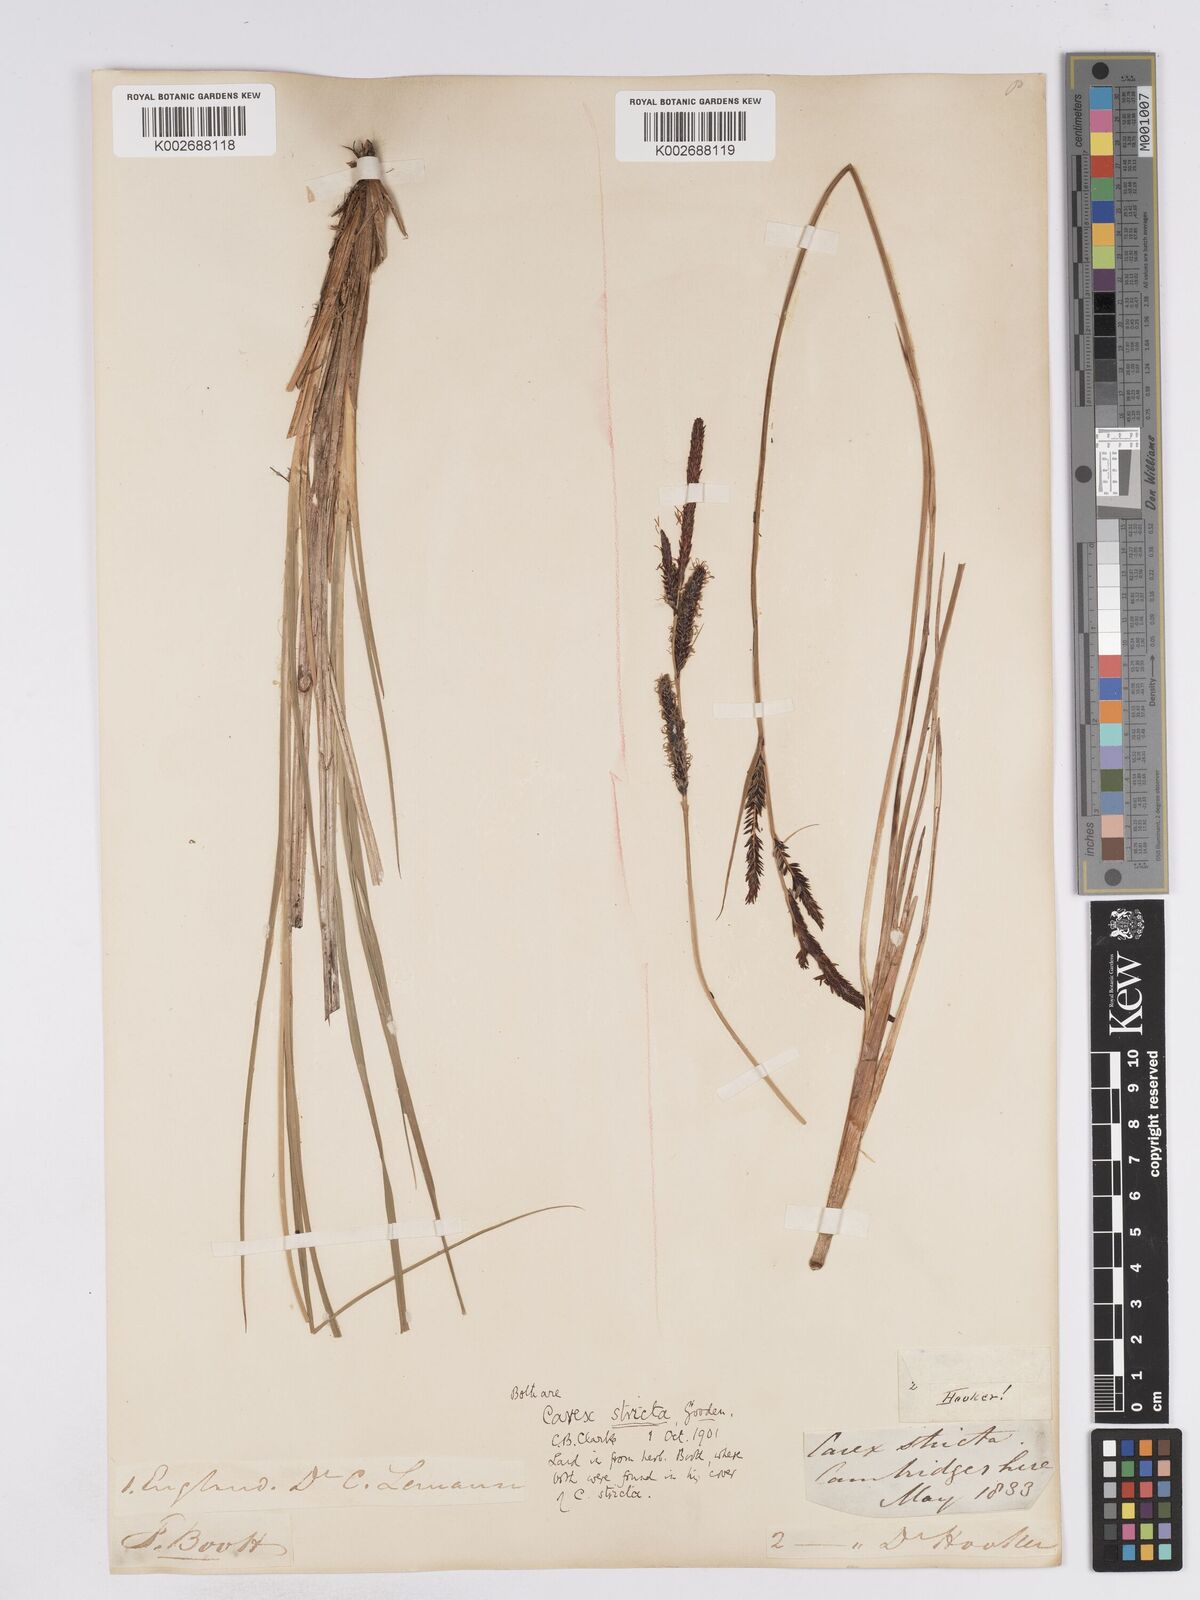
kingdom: Plantae
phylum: Tracheophyta
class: Liliopsida
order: Poales
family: Cyperaceae
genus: Carex
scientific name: Carex elata
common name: Tufted sedge
